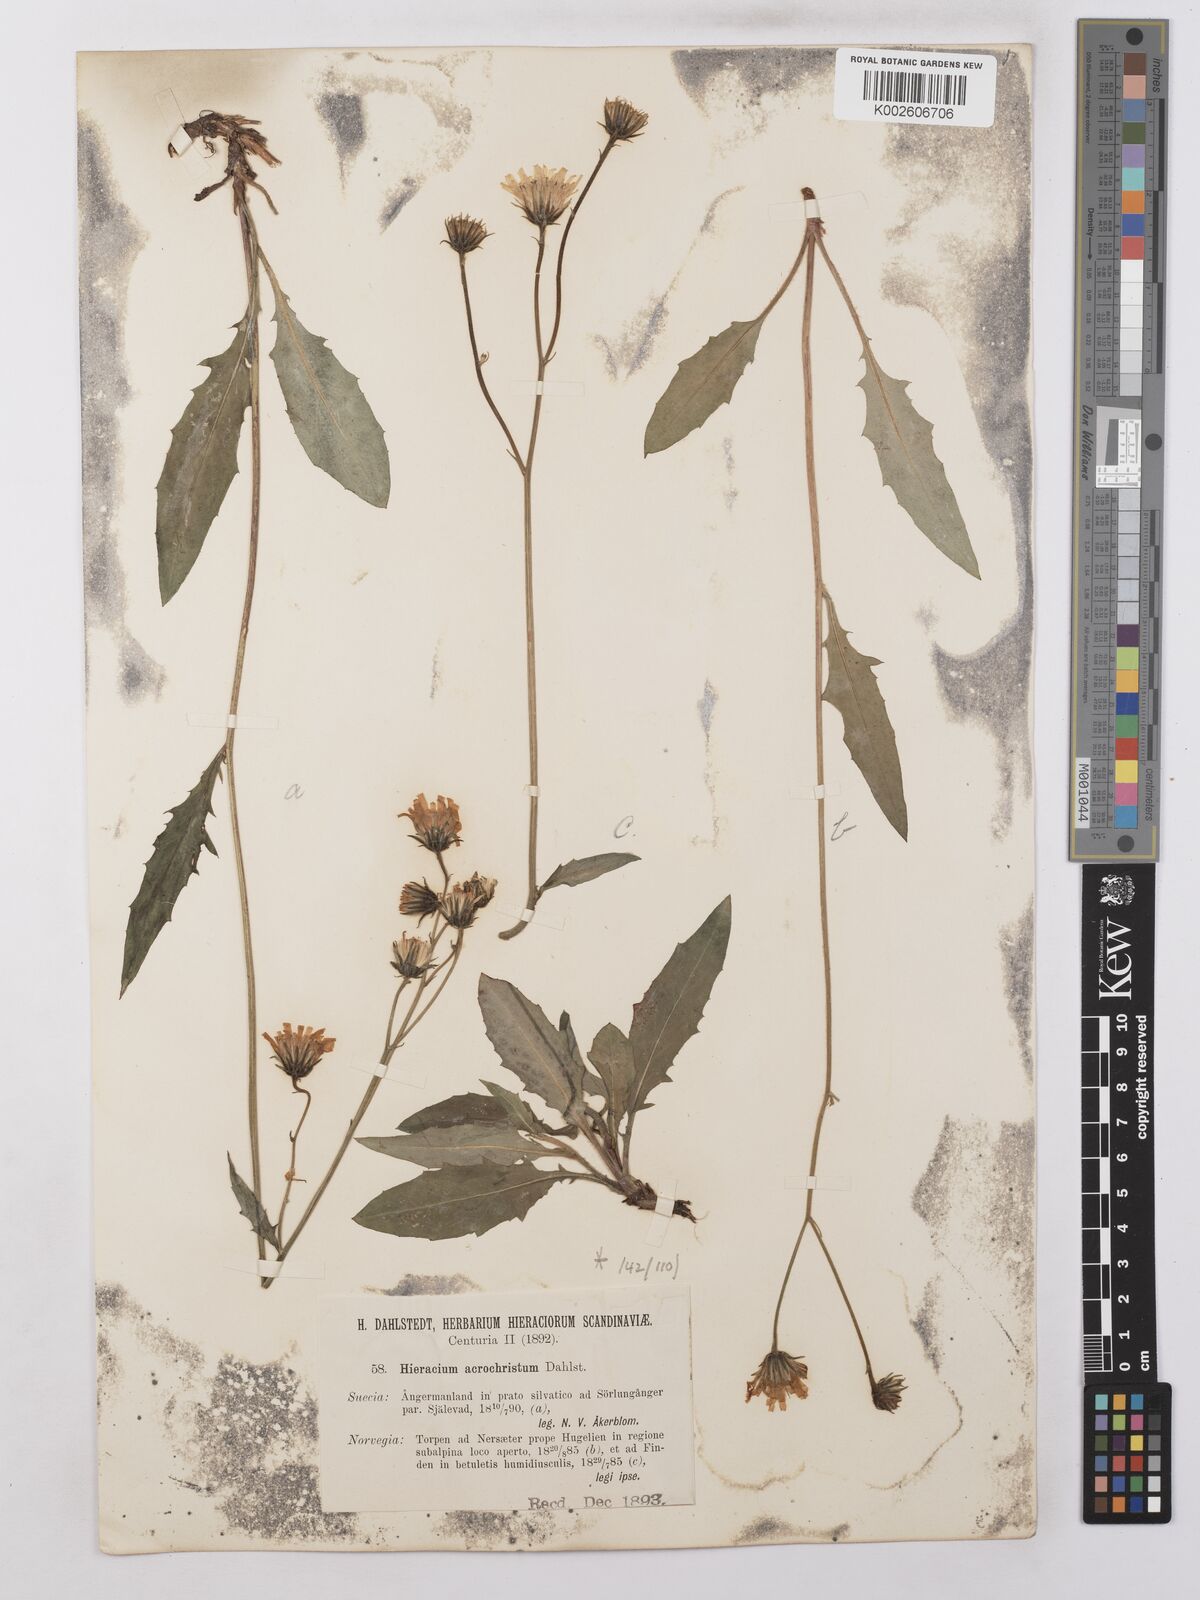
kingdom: Plantae
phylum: Tracheophyta
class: Magnoliopsida
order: Asterales
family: Asteraceae
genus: Hieracium
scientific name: Hieracium lachenalii
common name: Common hawkweed
